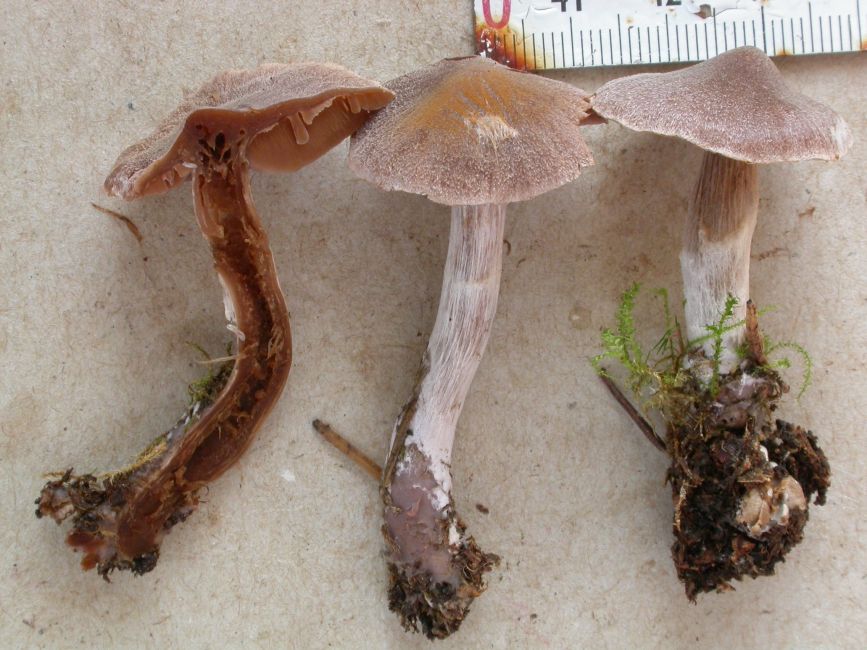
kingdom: Fungi
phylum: Basidiomycota
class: Agaricomycetes
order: Agaricales
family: Cortinariaceae
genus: Cortinarius
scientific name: Cortinarius comptulus
